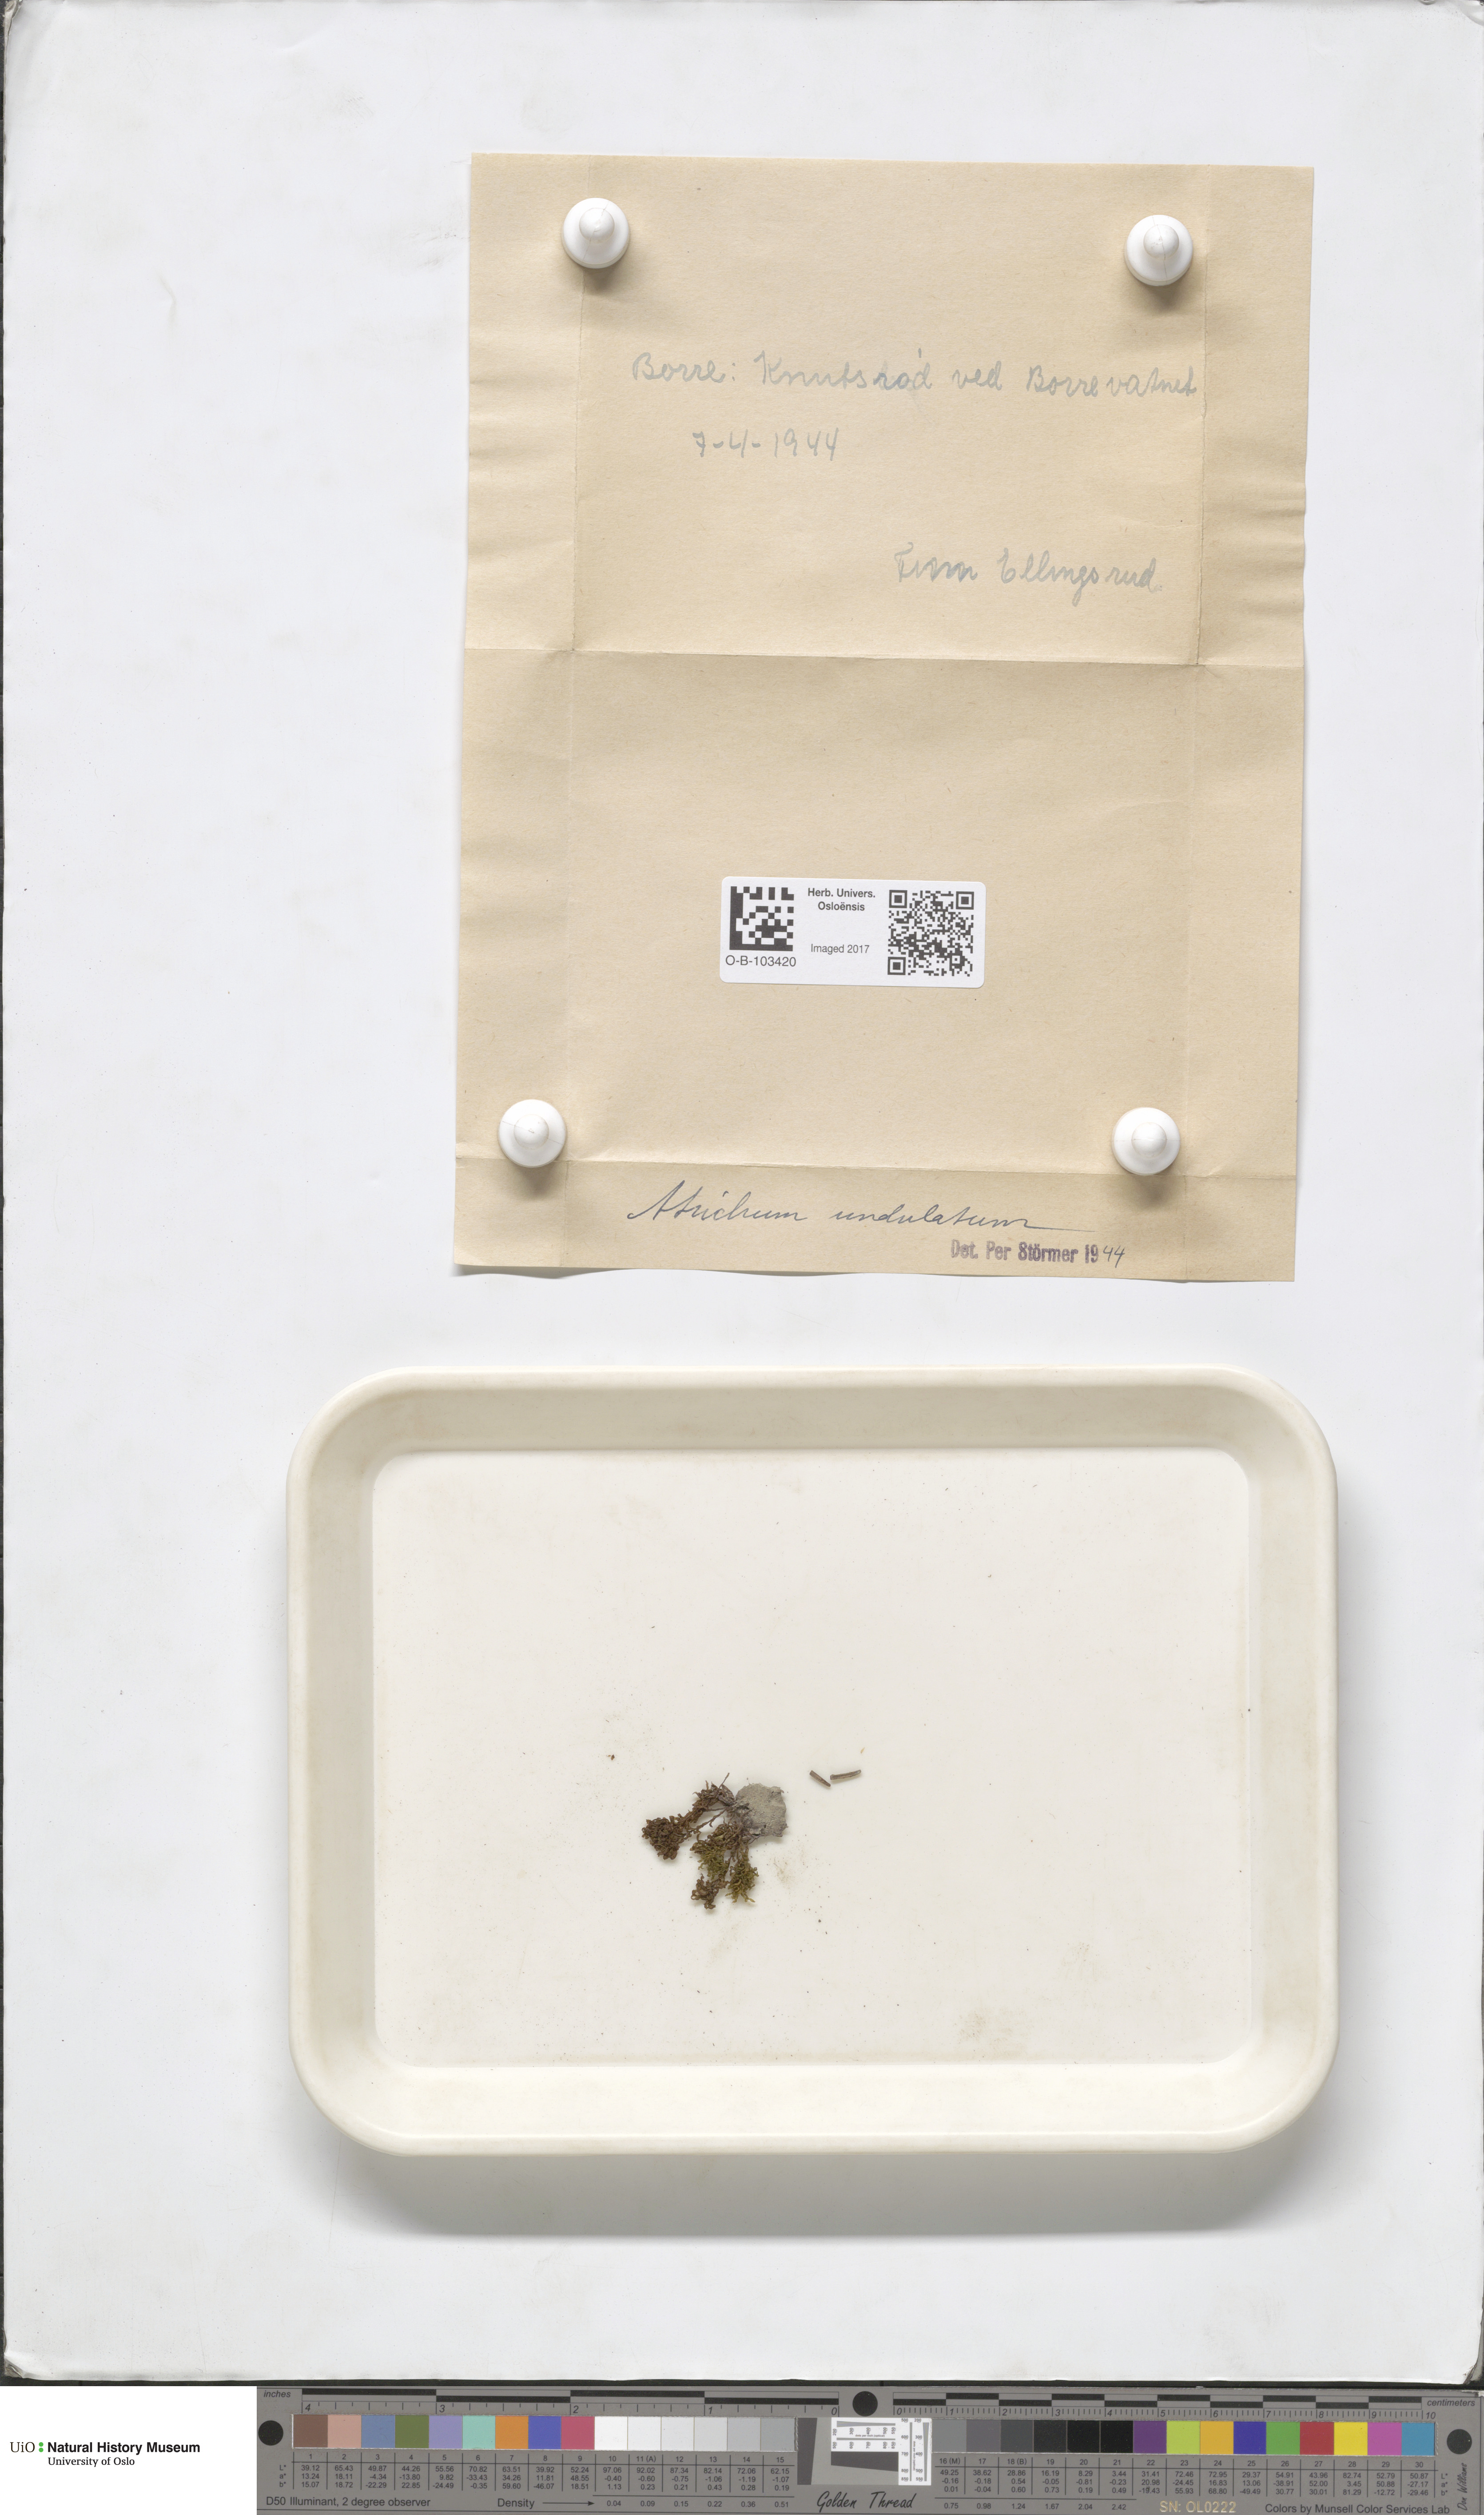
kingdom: Plantae
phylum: Bryophyta
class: Polytrichopsida
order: Polytrichales
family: Polytrichaceae
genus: Atrichum
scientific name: Atrichum undulatum
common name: Common smoothcap
